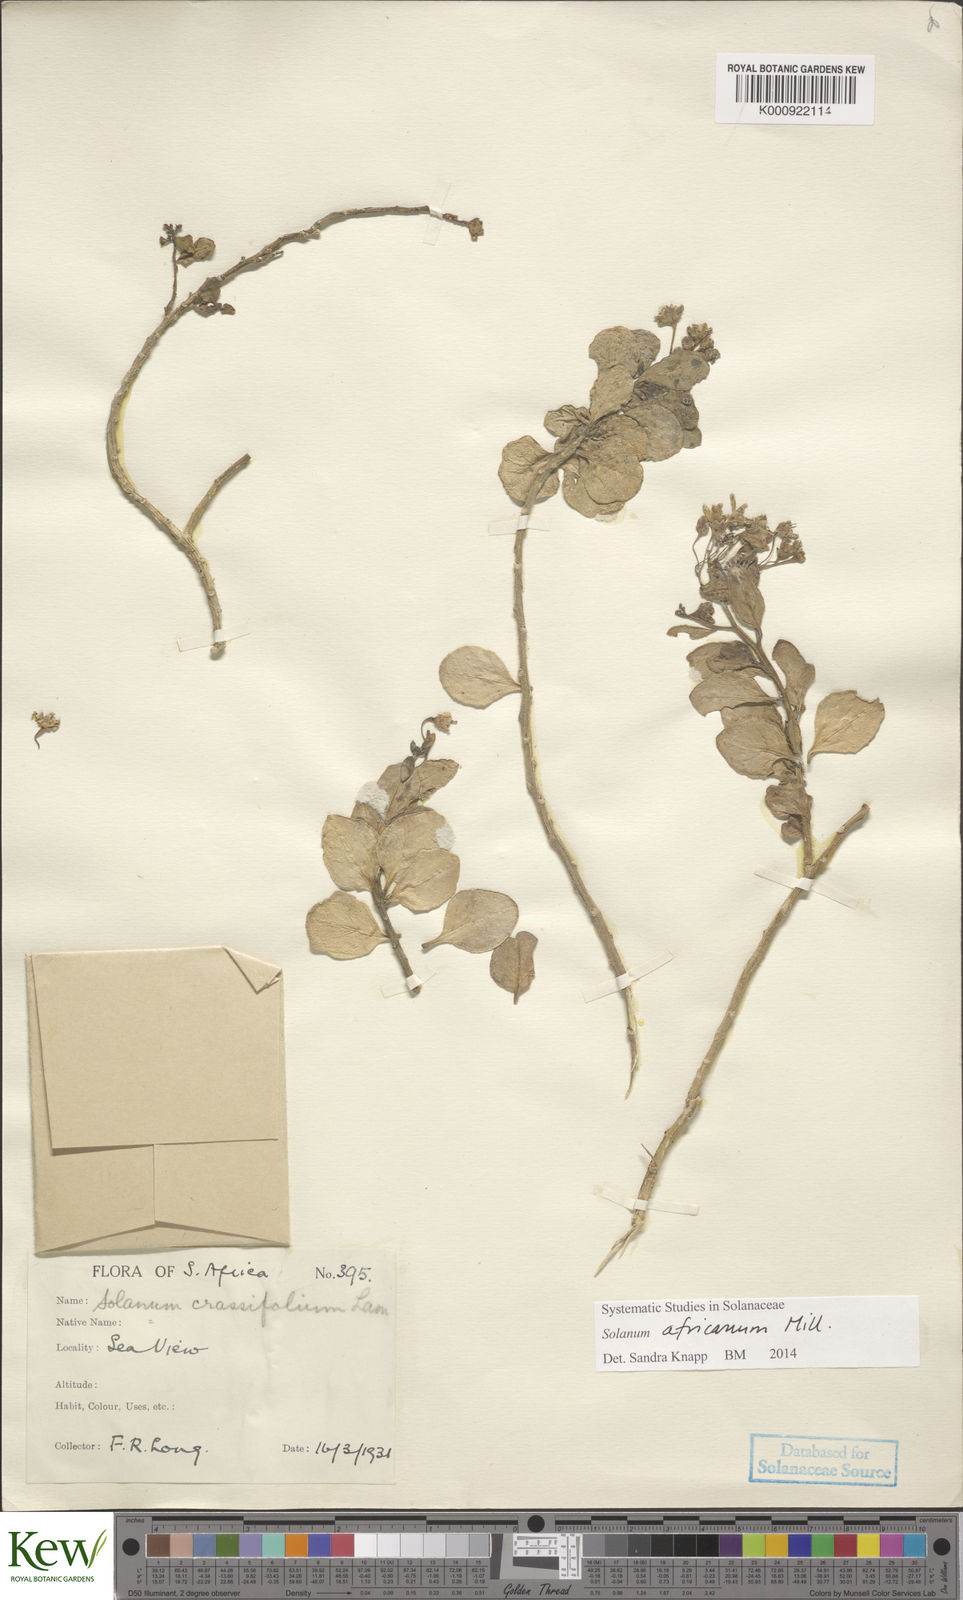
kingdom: Plantae
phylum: Tracheophyta
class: Magnoliopsida
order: Solanales
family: Solanaceae
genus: Solanum
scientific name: Solanum africanum
